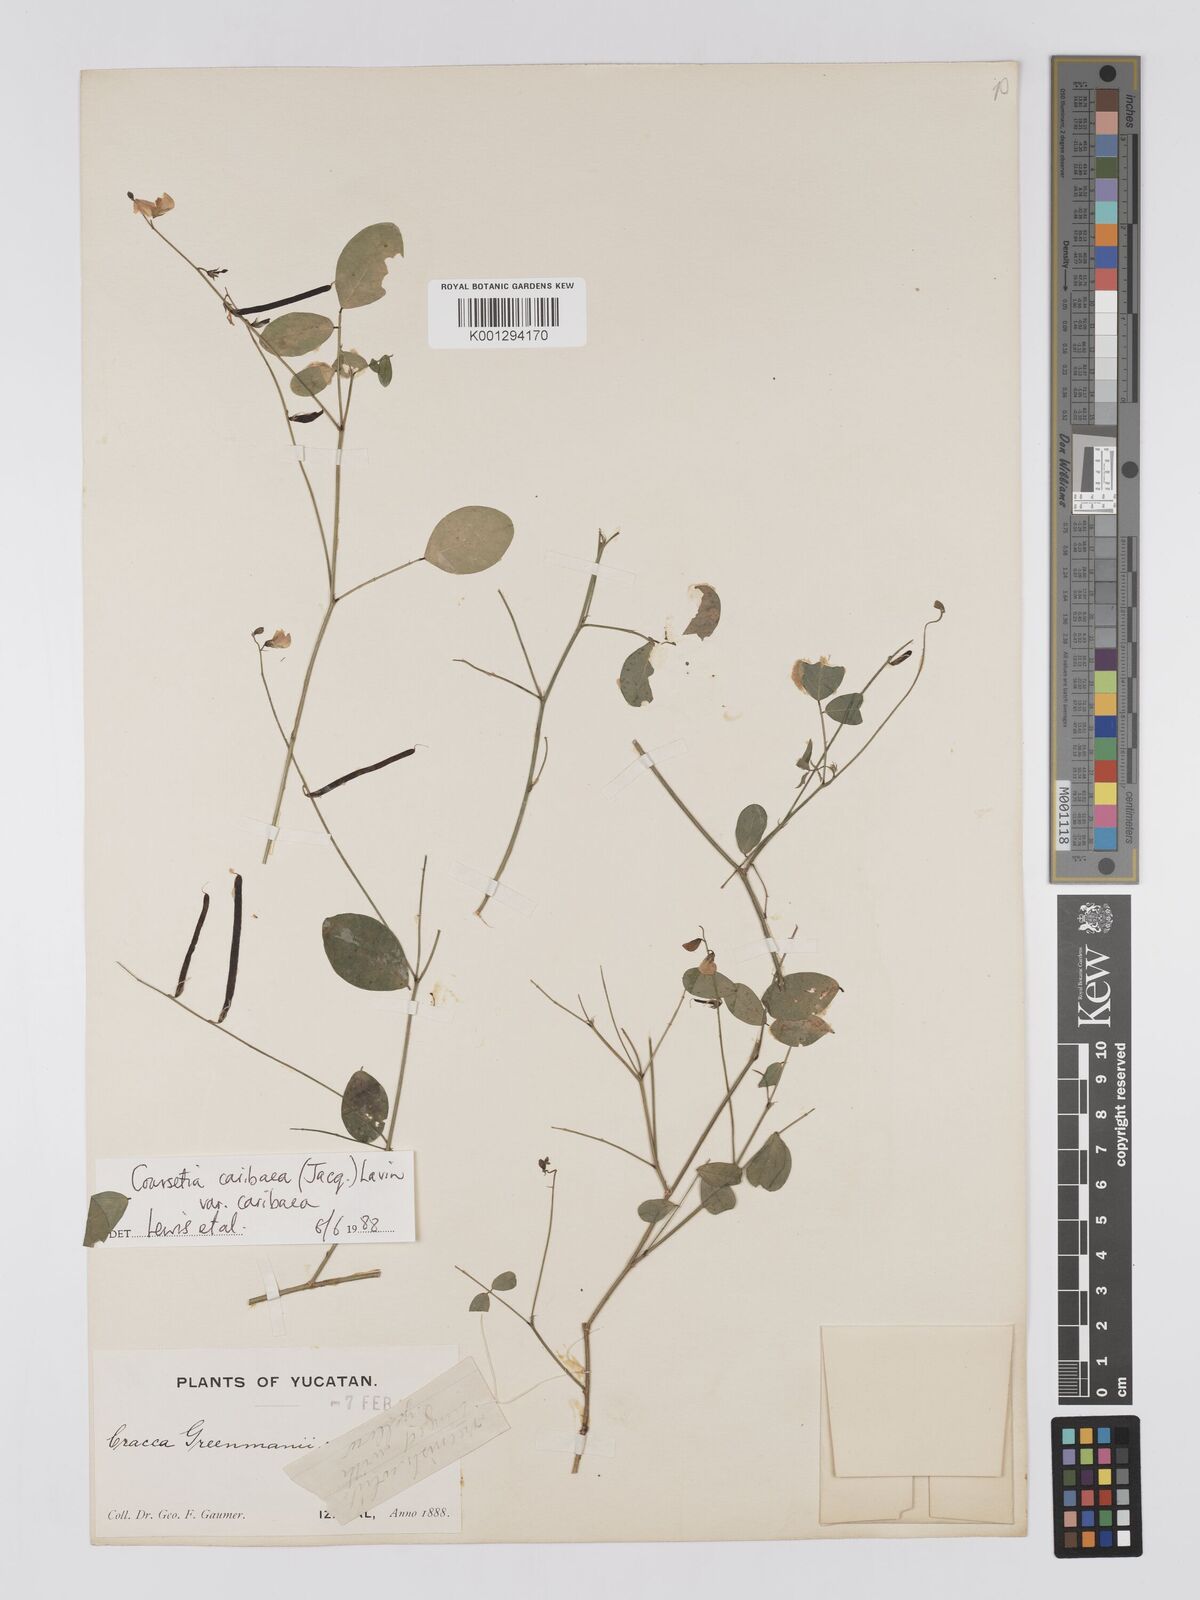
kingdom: Plantae
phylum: Tracheophyta
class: Magnoliopsida
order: Fabales
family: Fabaceae
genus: Coursetia
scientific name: Coursetia
